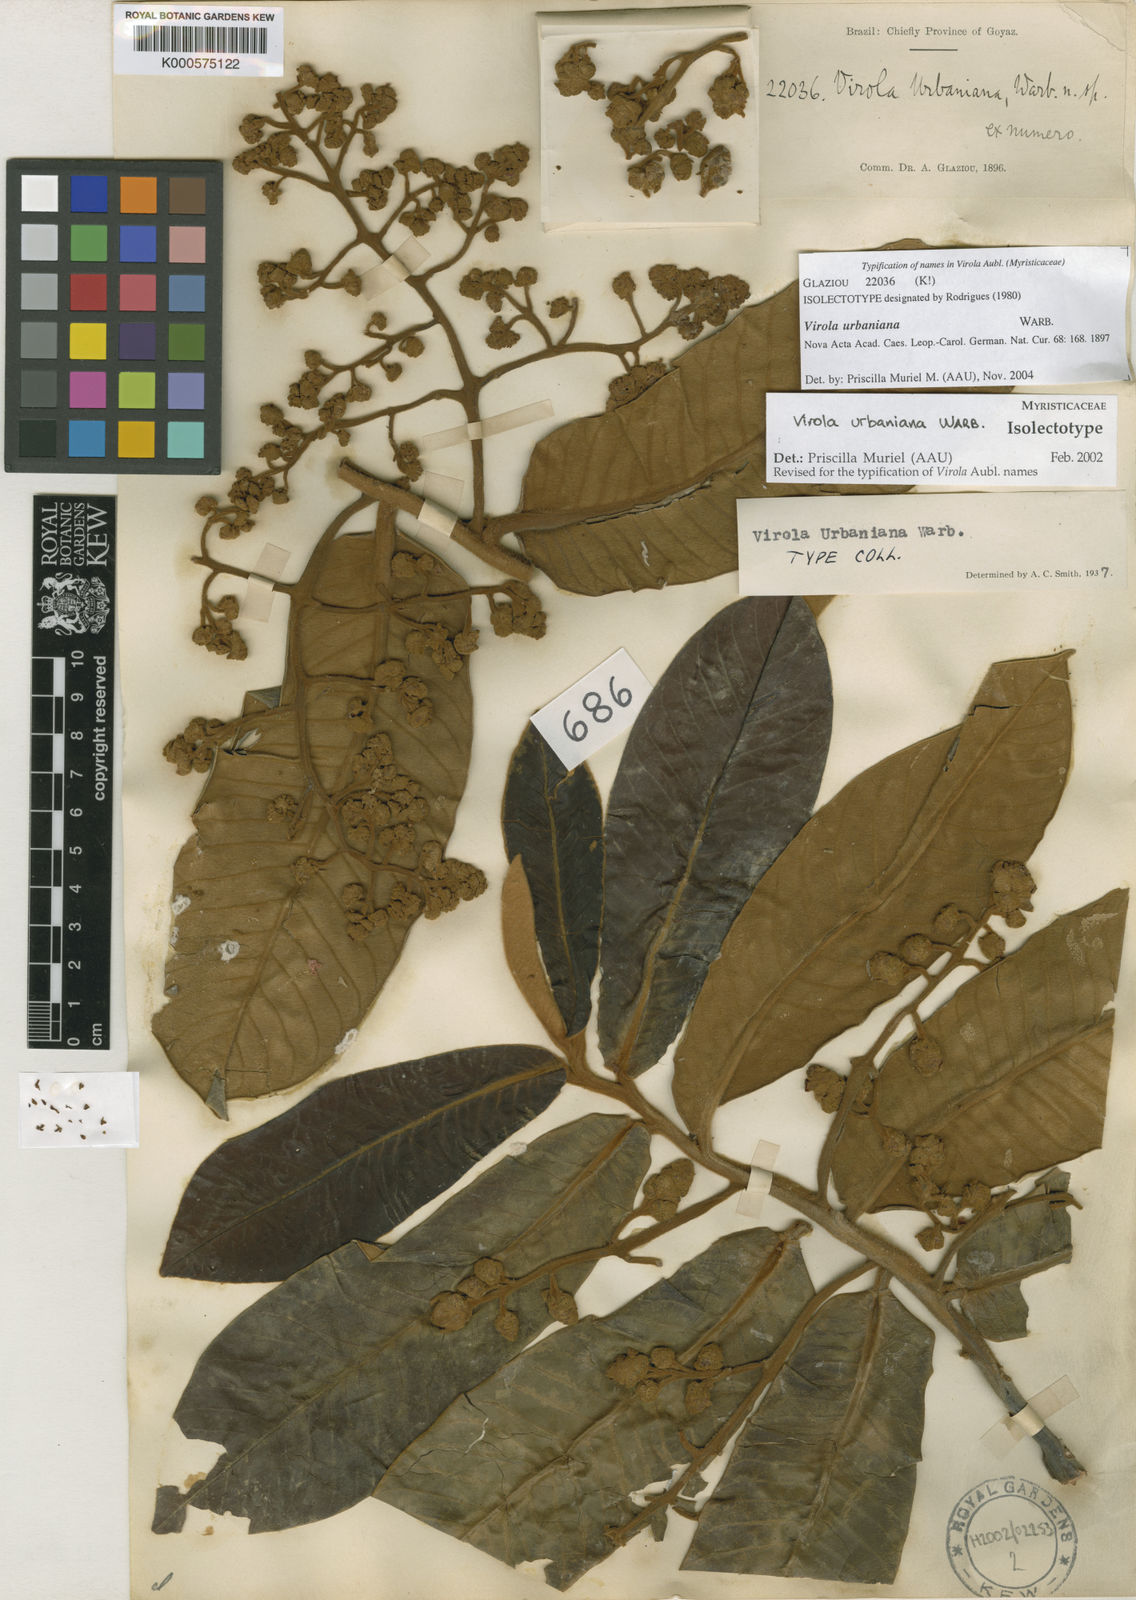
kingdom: Plantae
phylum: Tracheophyta
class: Magnoliopsida
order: Magnoliales
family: Myristicaceae
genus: Virola
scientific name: Virola urbaniana
